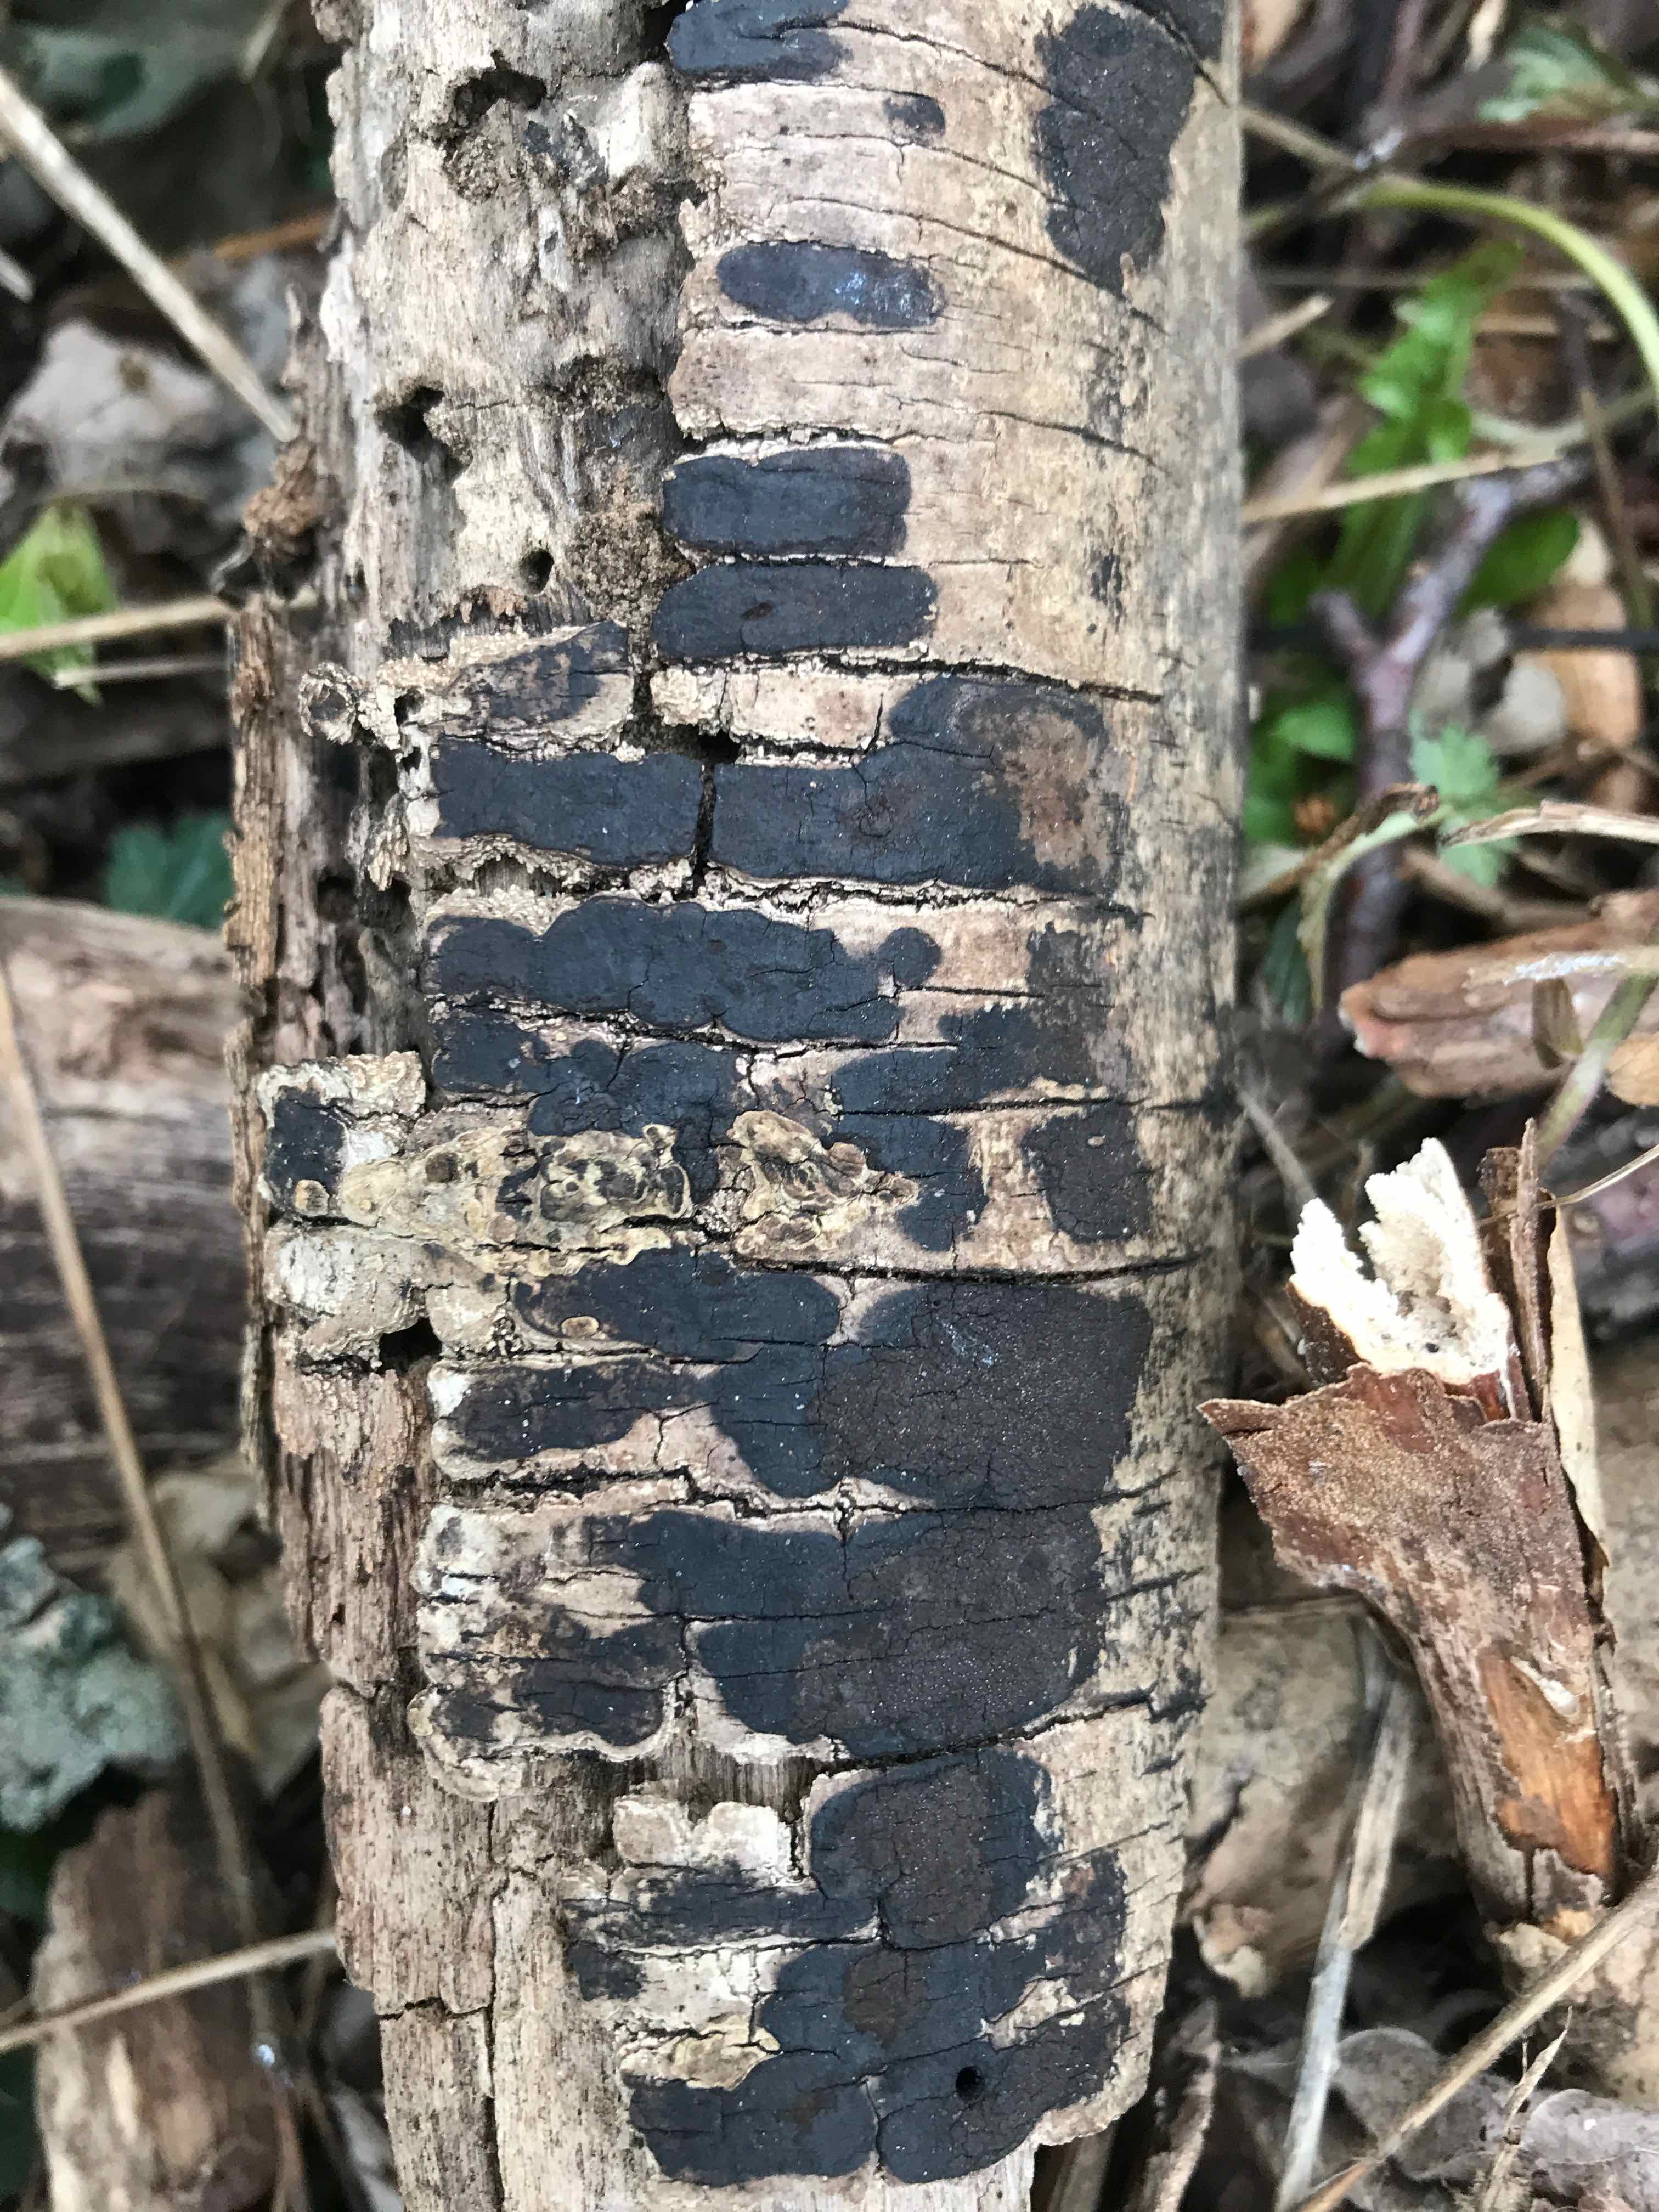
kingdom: Fungi
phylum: Ascomycota
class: Sordariomycetes
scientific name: Sordariomycetes
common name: kernesvampklassen
